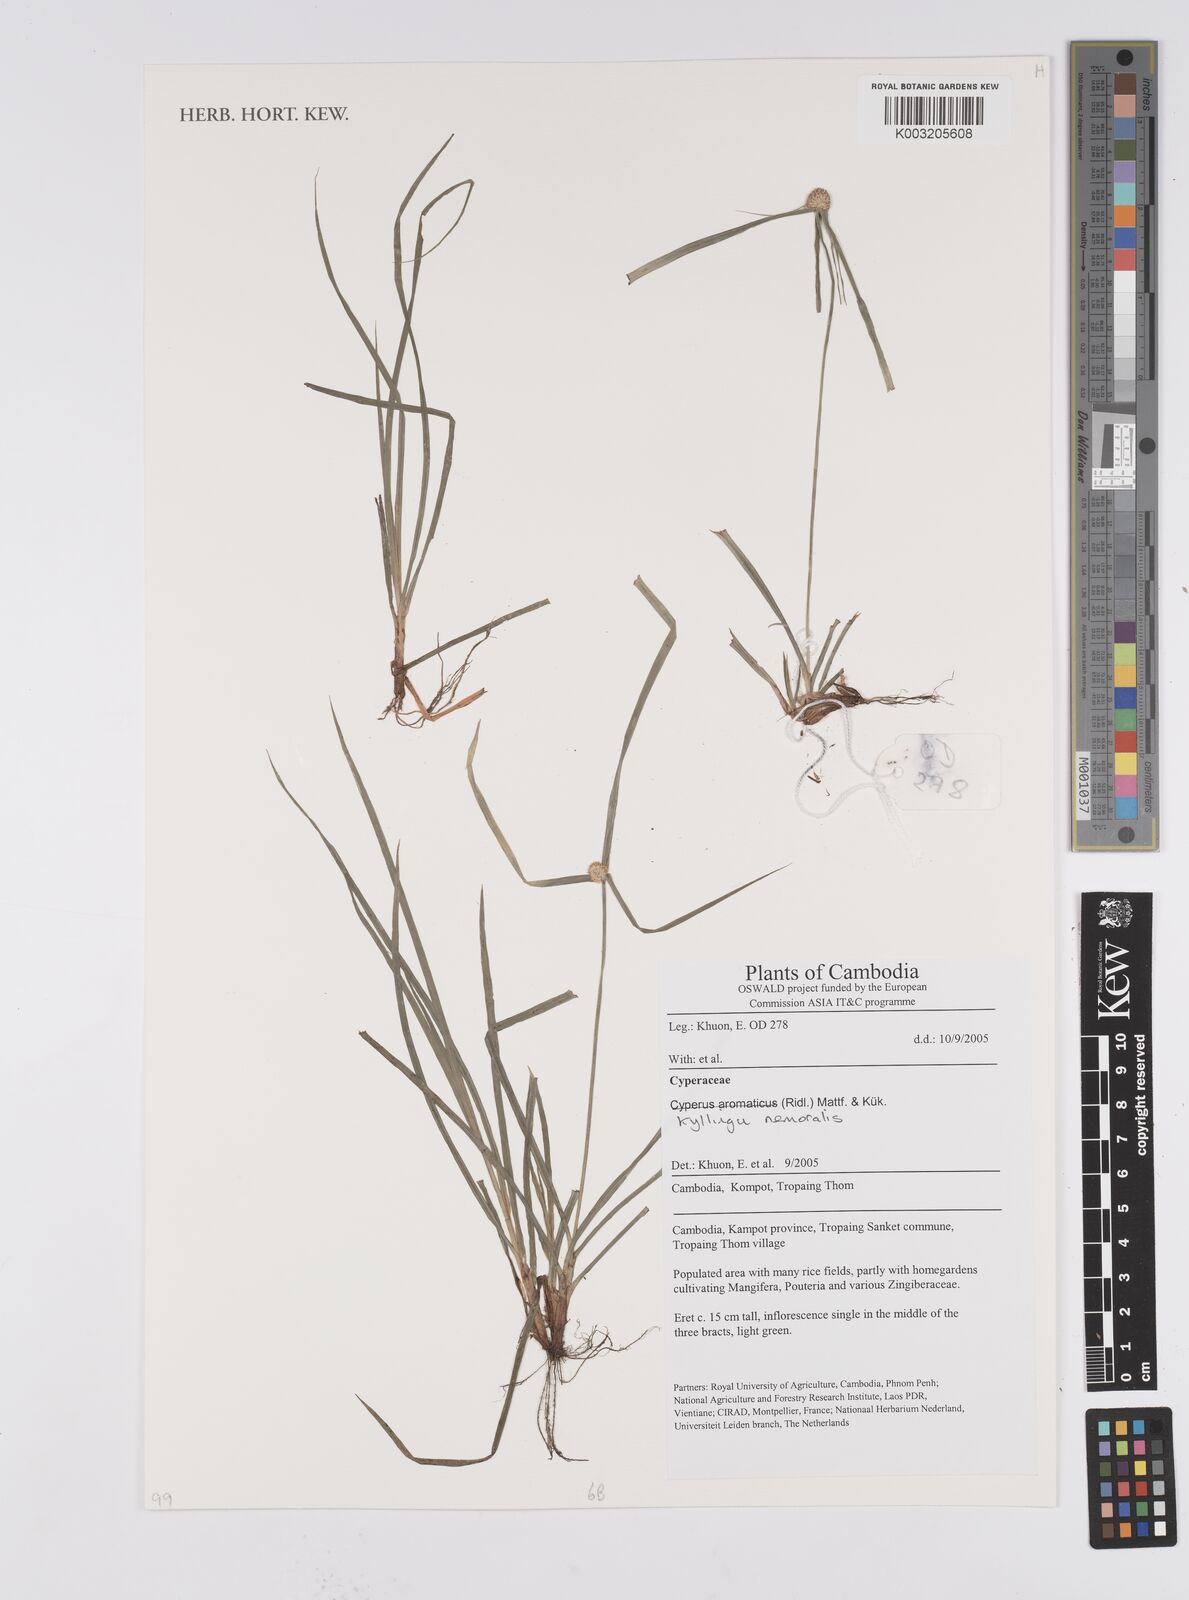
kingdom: Plantae
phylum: Tracheophyta
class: Liliopsida
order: Poales
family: Cyperaceae
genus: Cyperus
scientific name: Cyperus
